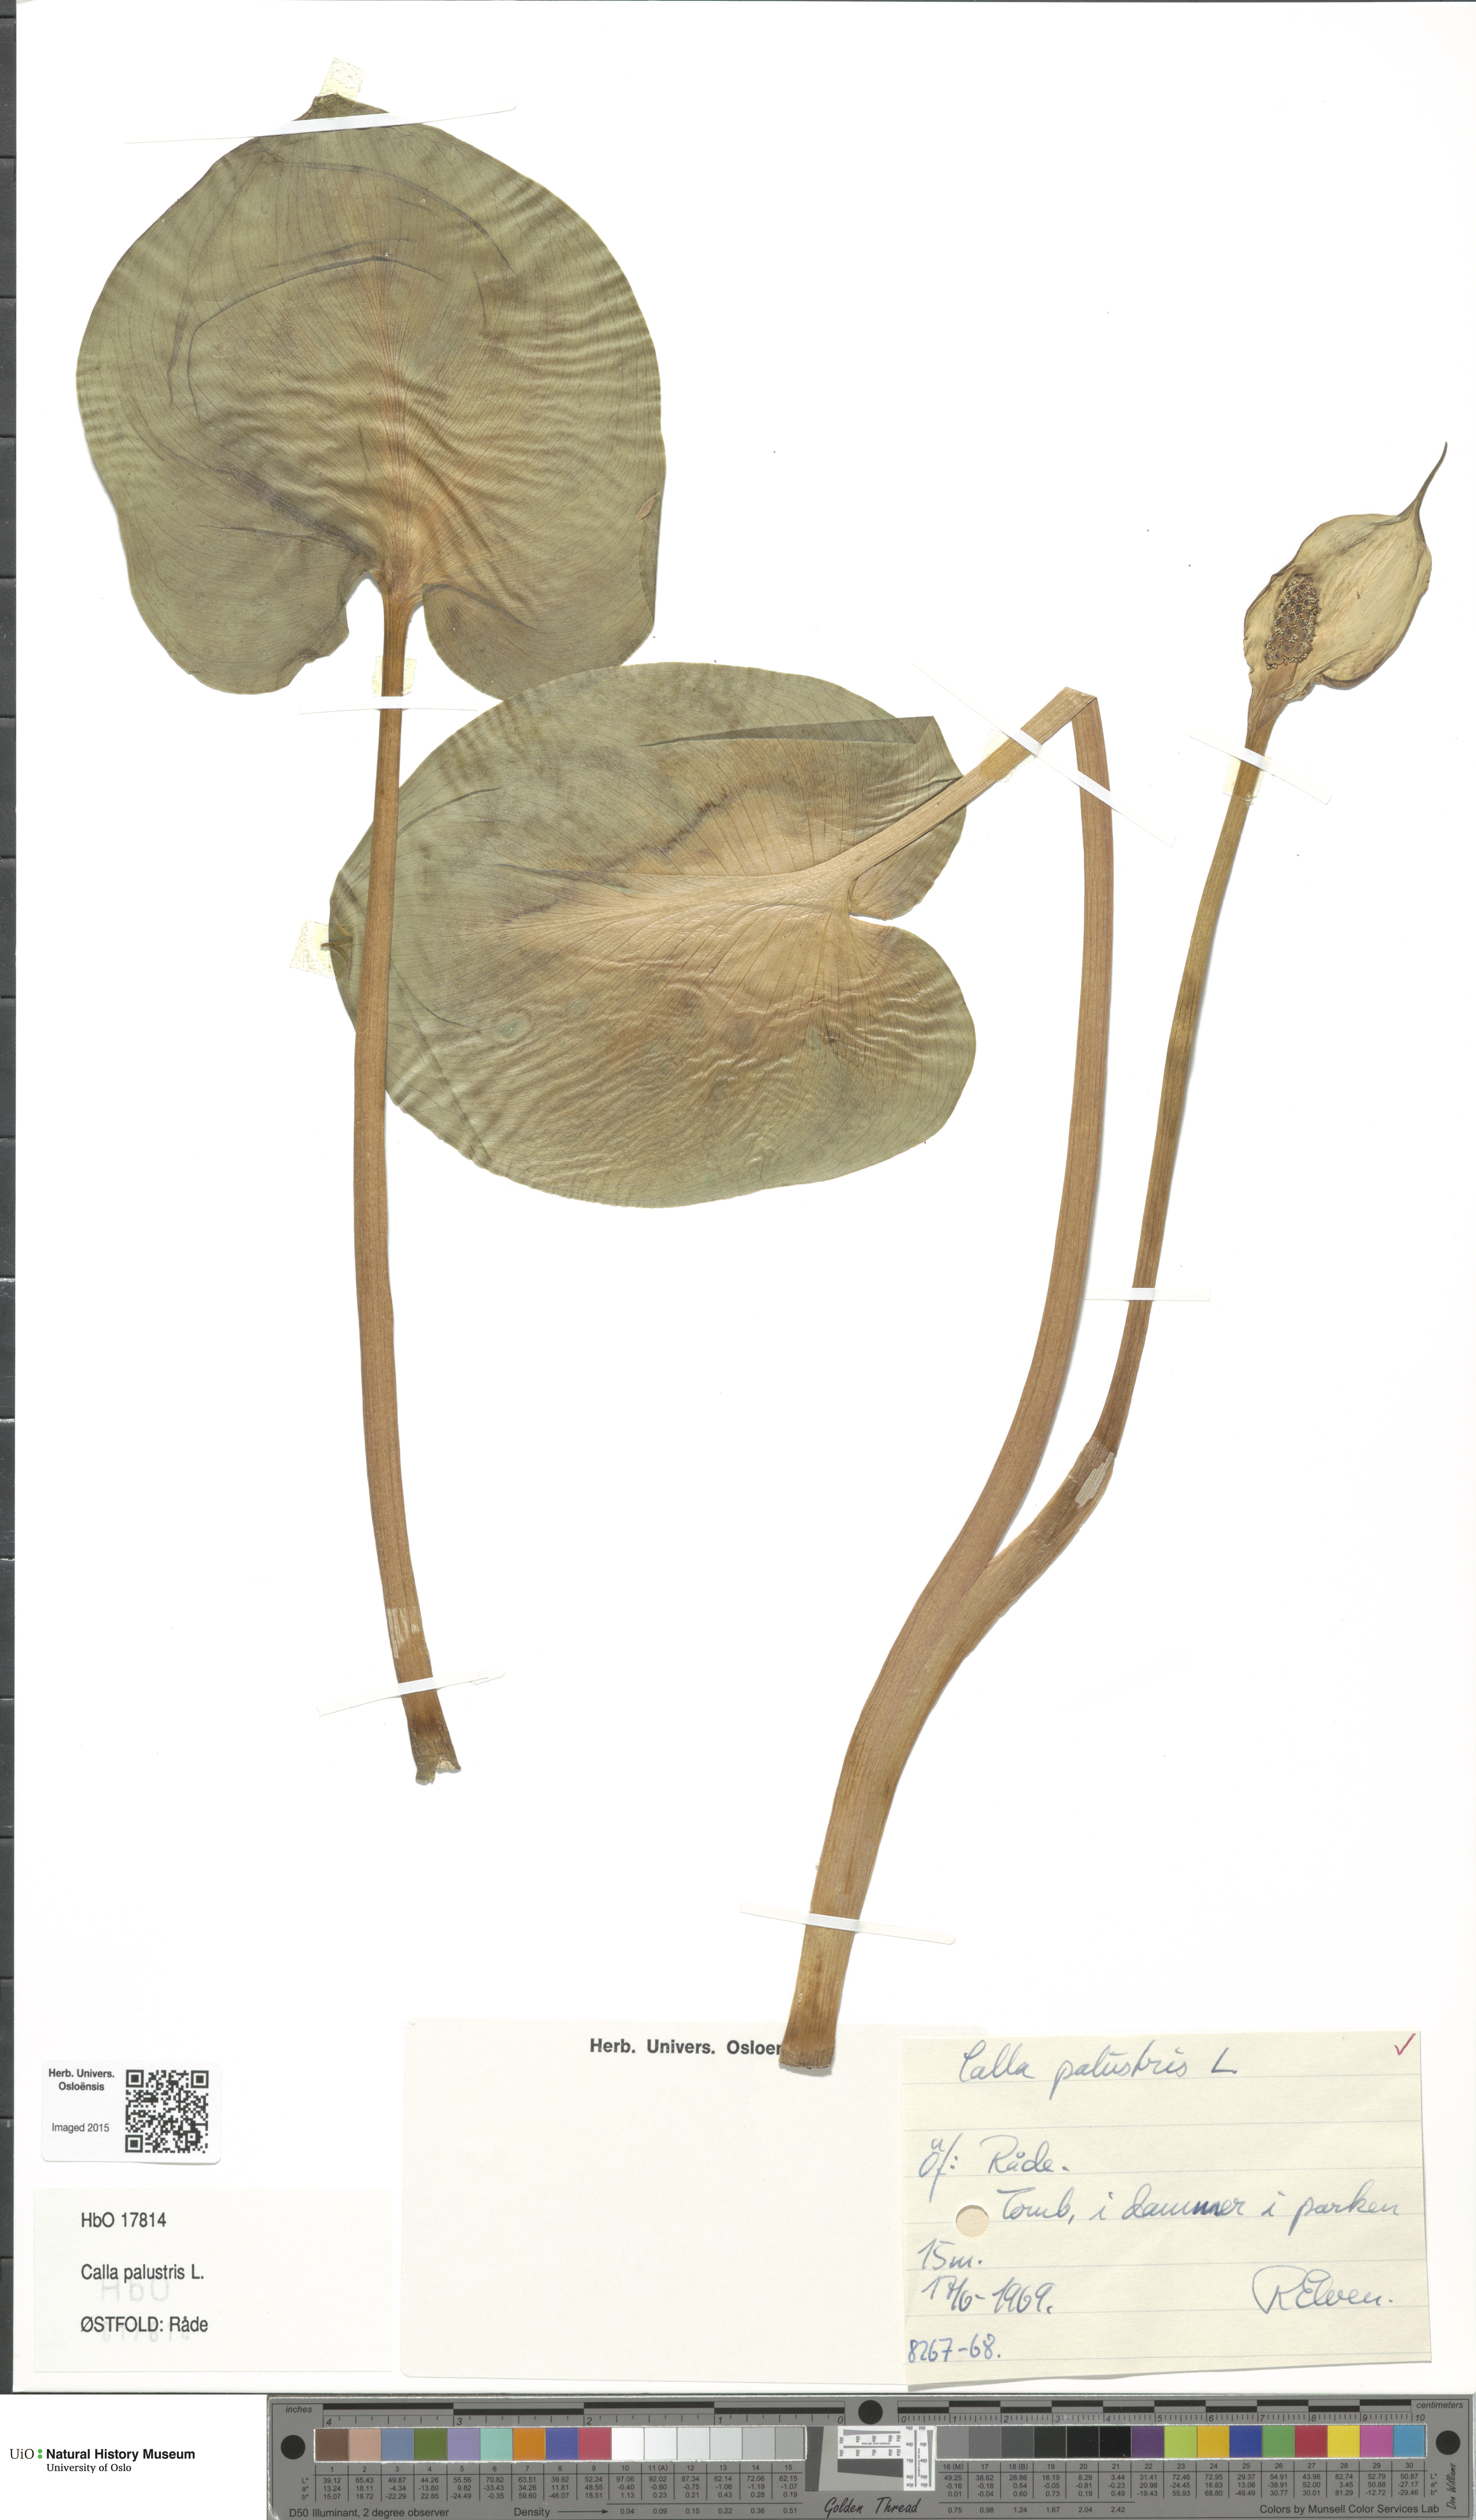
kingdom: Plantae
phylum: Tracheophyta
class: Liliopsida
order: Alismatales
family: Araceae
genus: Calla
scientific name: Calla palustris
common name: Bog arum
